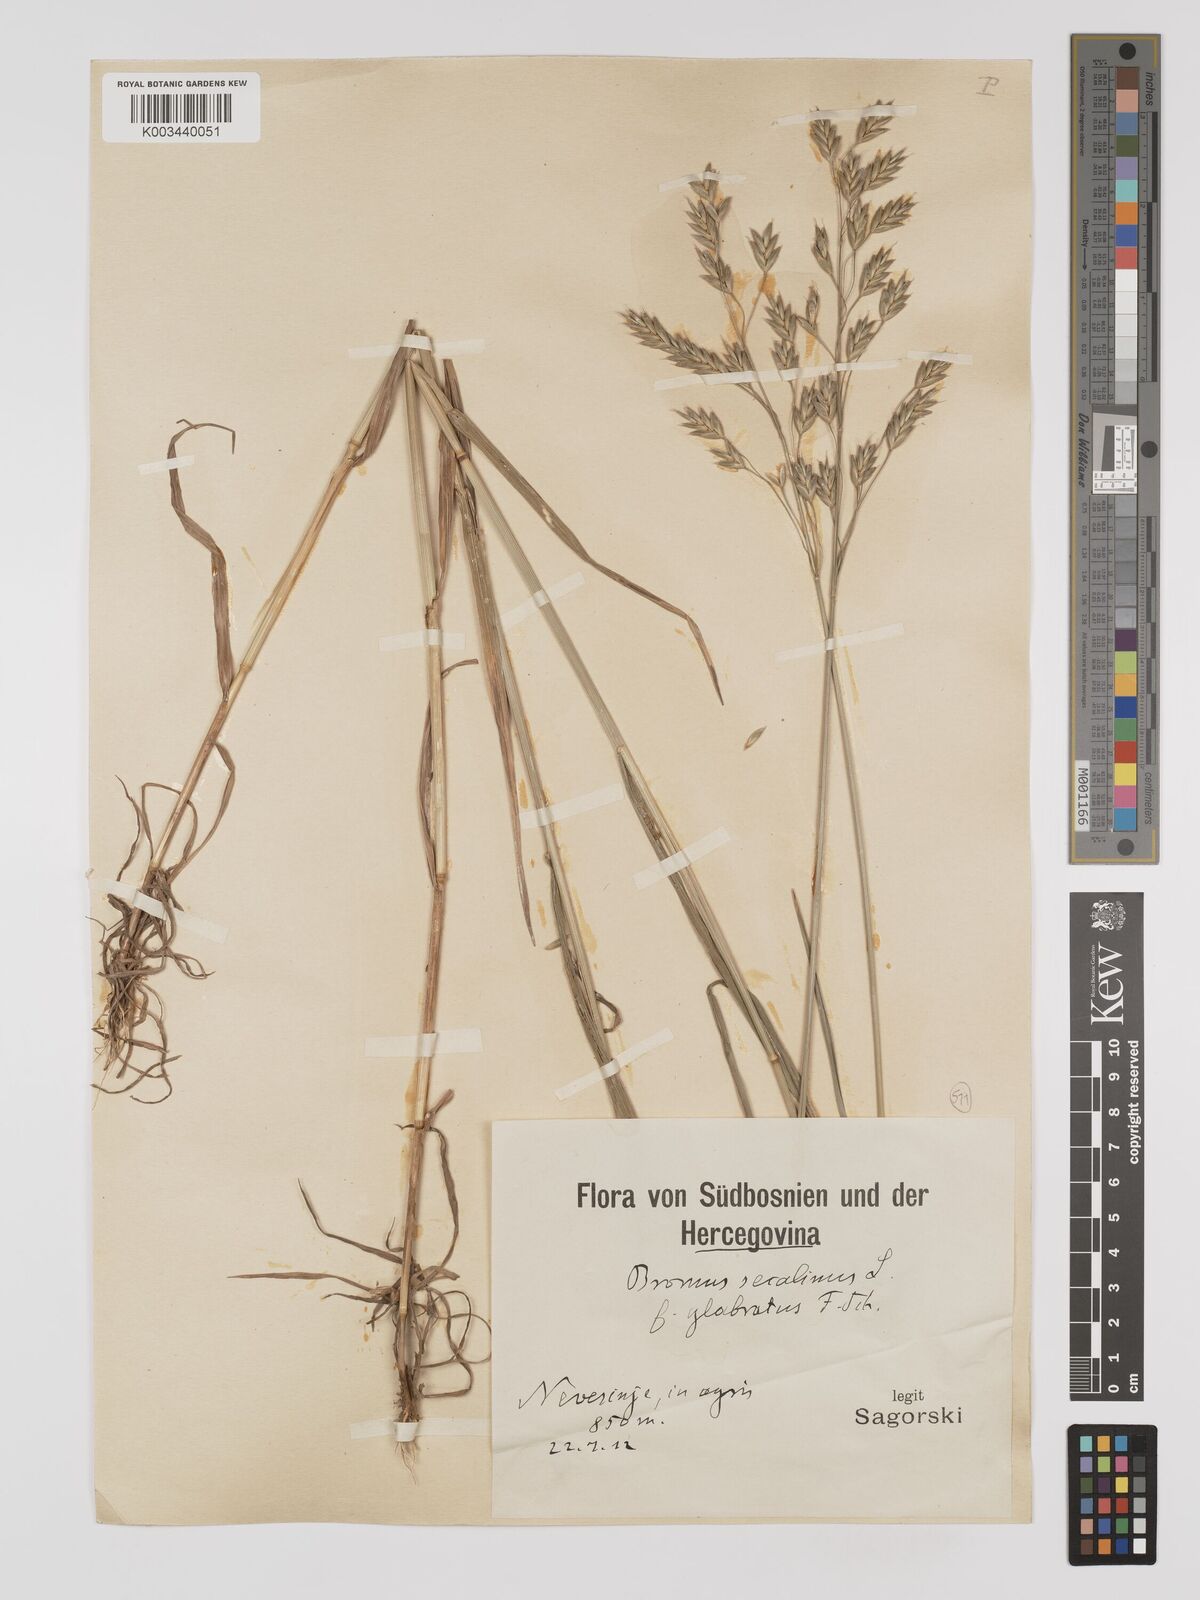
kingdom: Plantae
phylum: Tracheophyta
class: Liliopsida
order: Poales
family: Poaceae
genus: Bromus
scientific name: Bromus secalinus
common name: Rye brome
